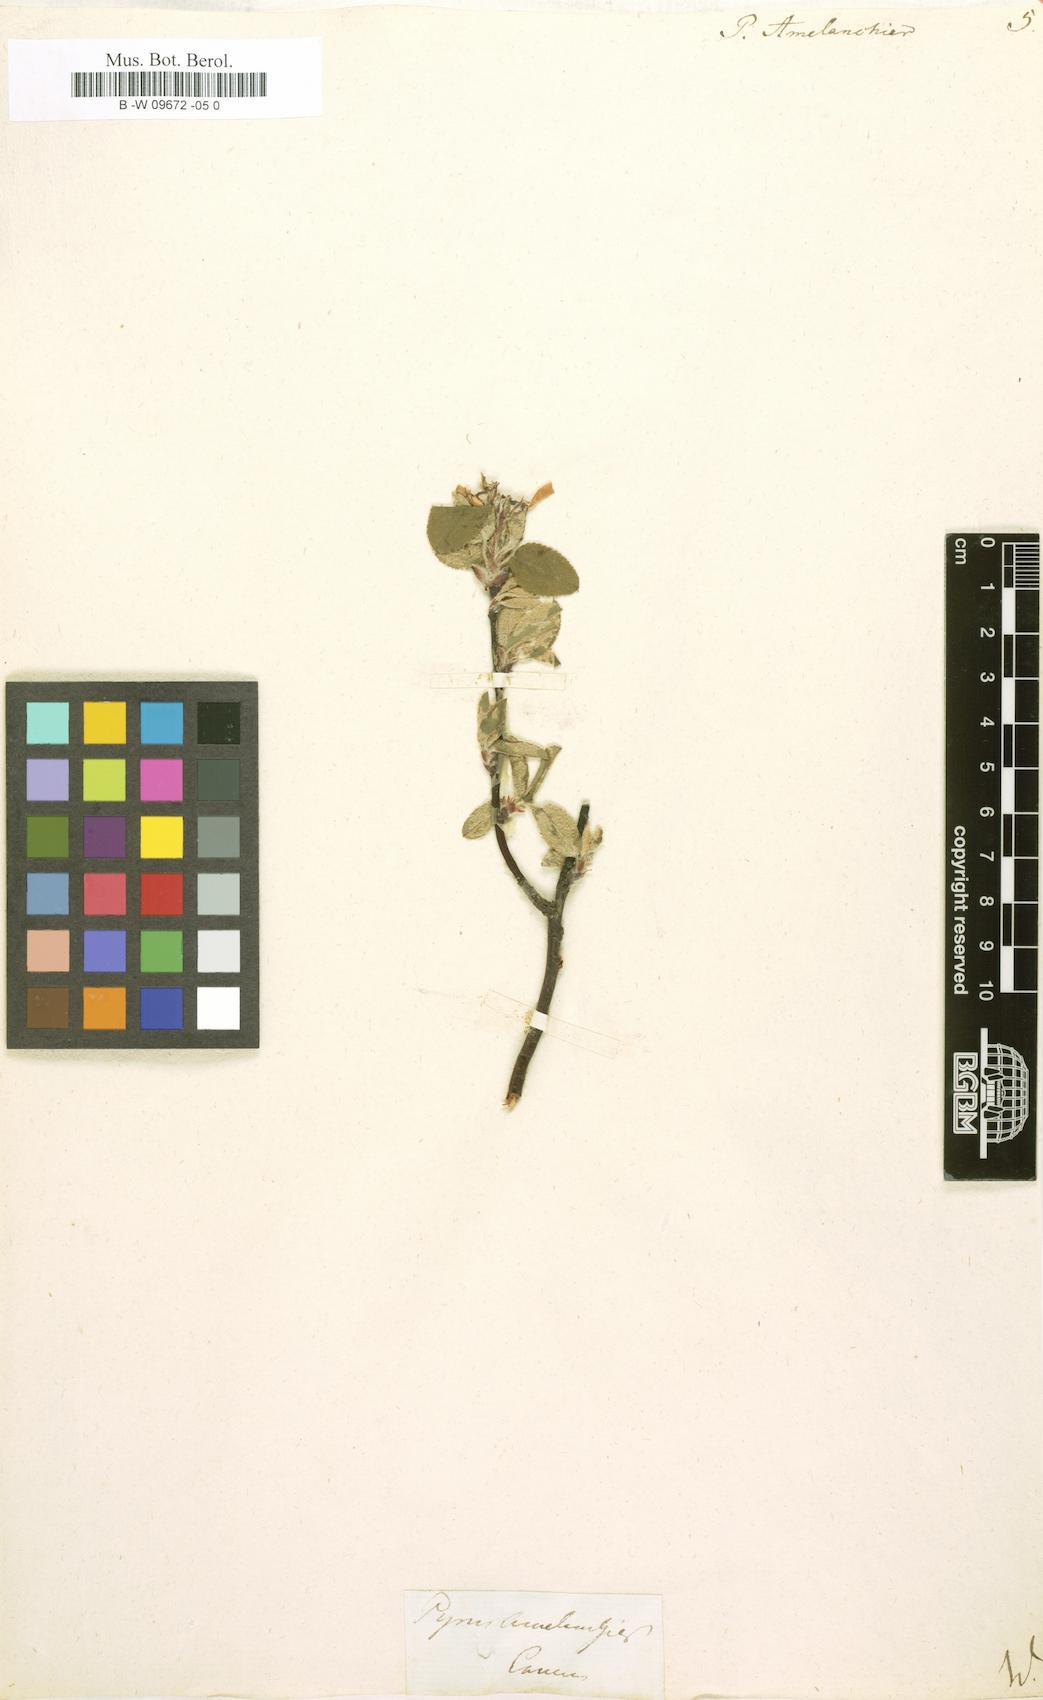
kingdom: Plantae
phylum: Tracheophyta
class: Magnoliopsida
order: Rosales
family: Rosaceae
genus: Pyrus
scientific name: Pyrus amelanchier
